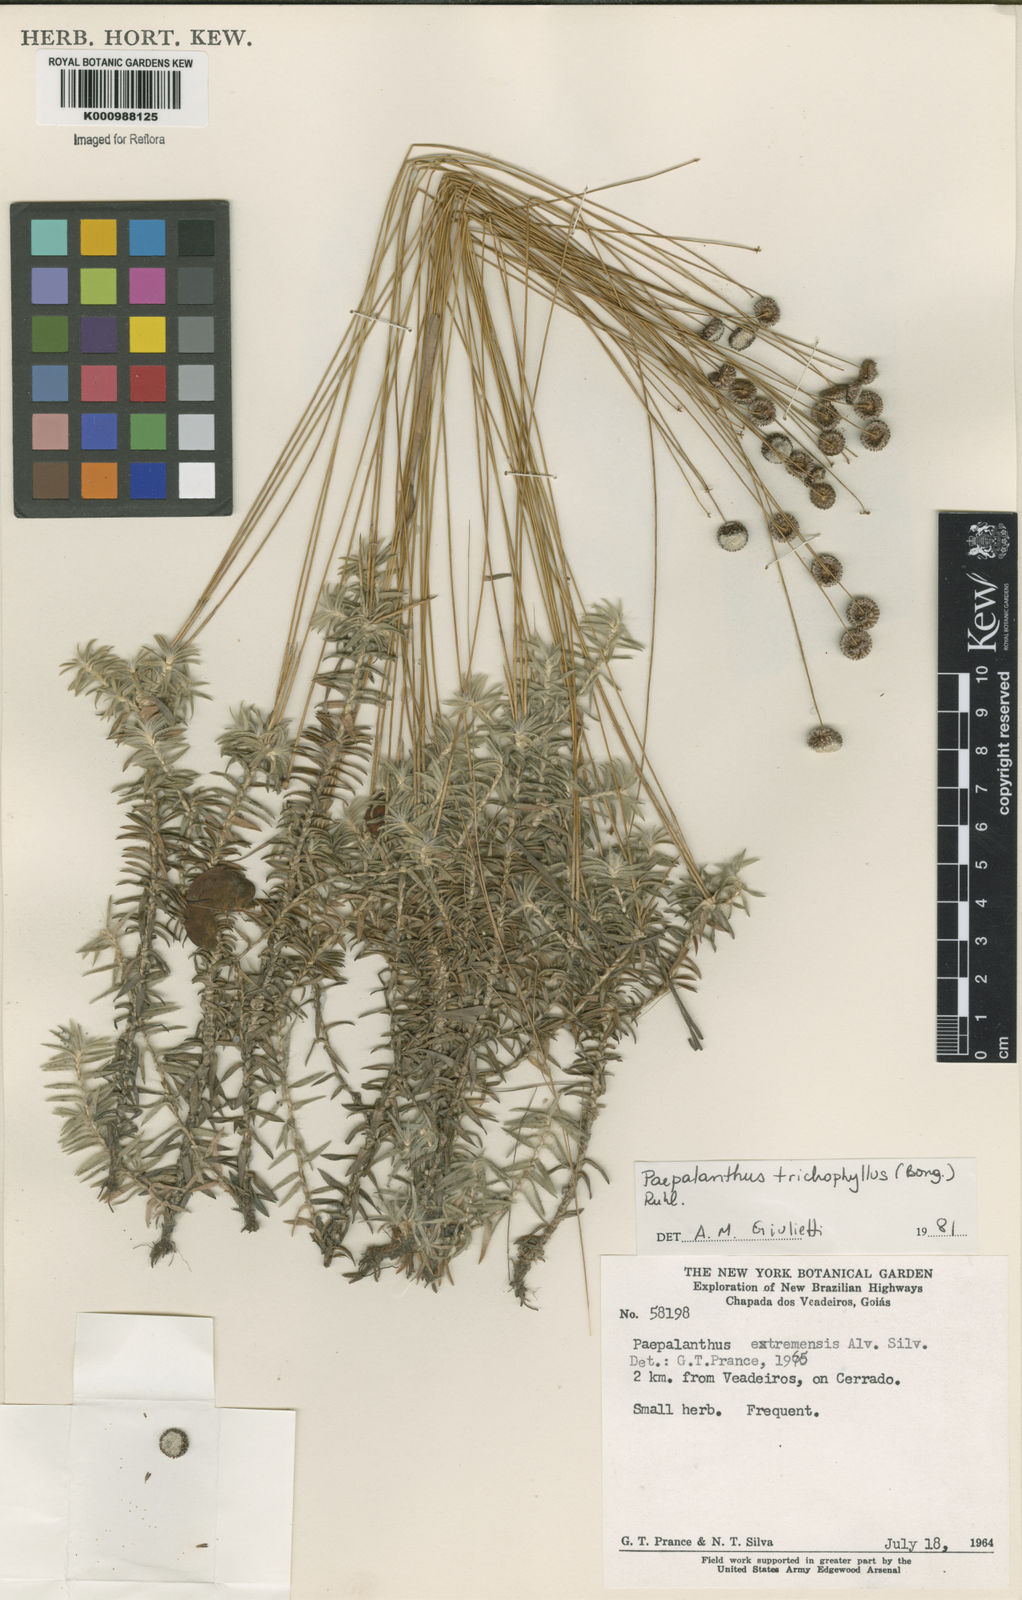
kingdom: Plantae
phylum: Tracheophyta
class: Liliopsida
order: Poales
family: Eriocaulaceae
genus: Paepalanthus
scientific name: Paepalanthus
